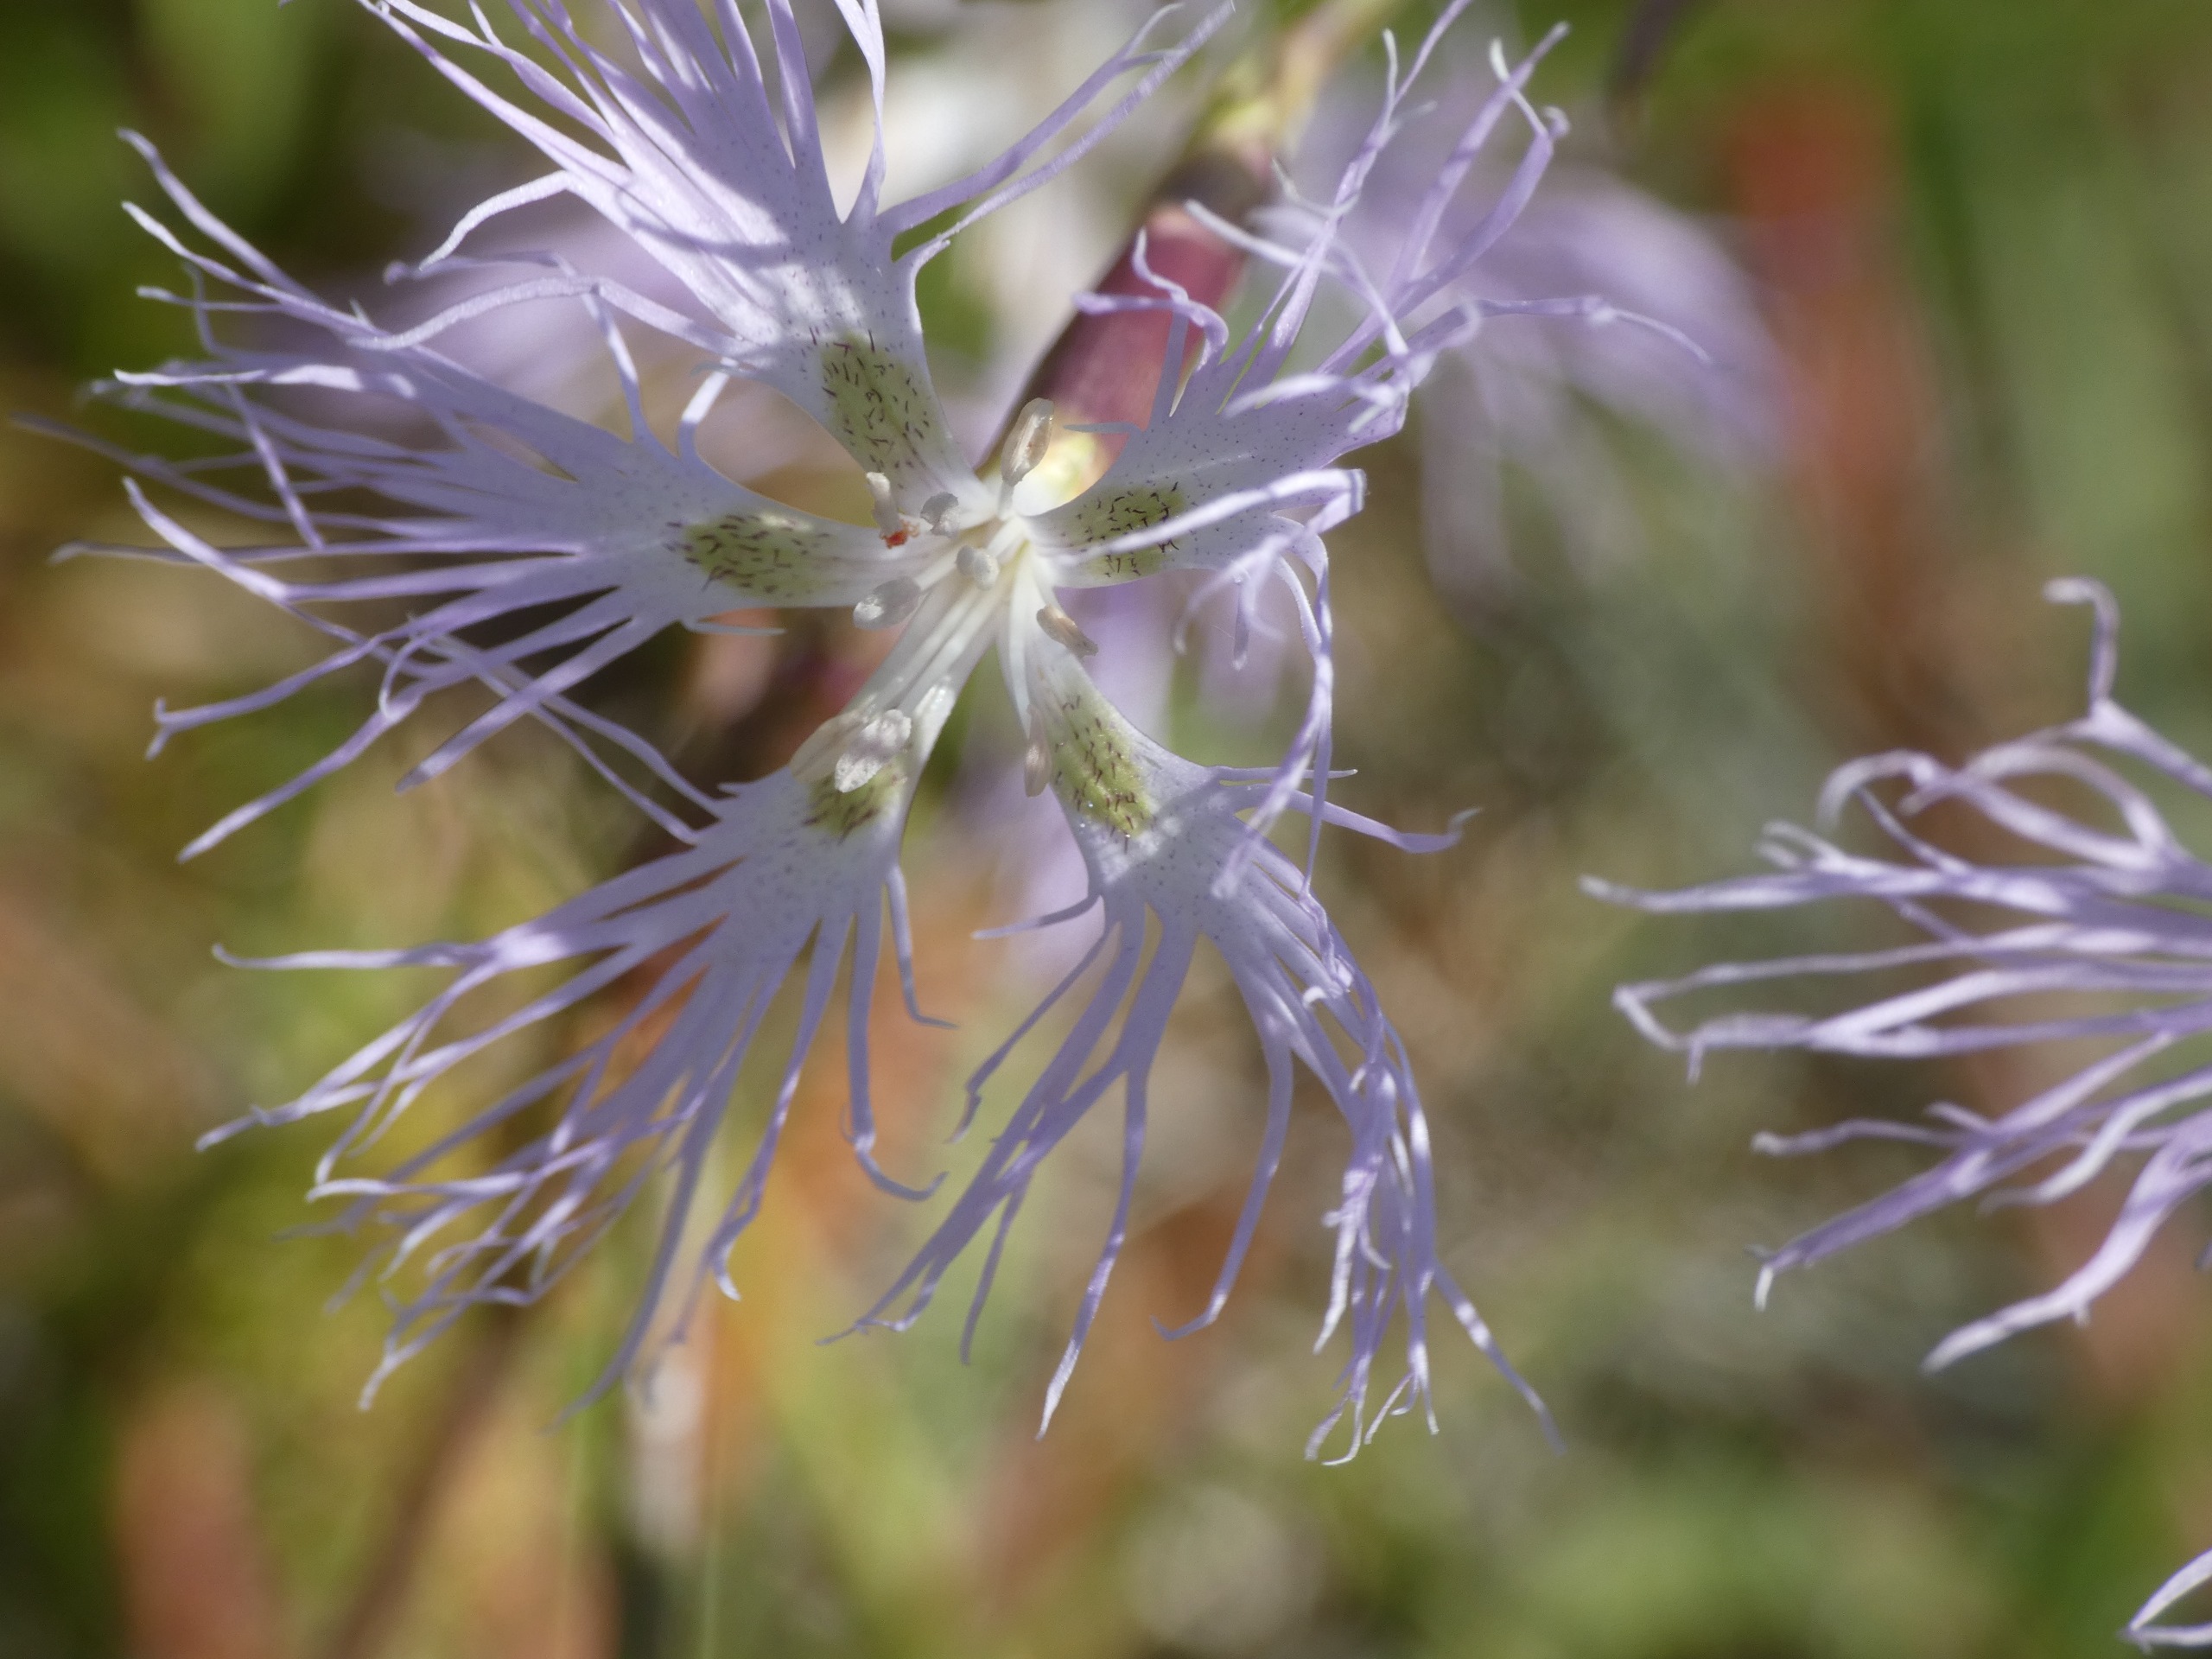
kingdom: Plantae
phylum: Tracheophyta
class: Magnoliopsida
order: Caryophyllales
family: Caryophyllaceae
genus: Dianthus
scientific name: Dianthus superbus
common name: Strand-nellike
